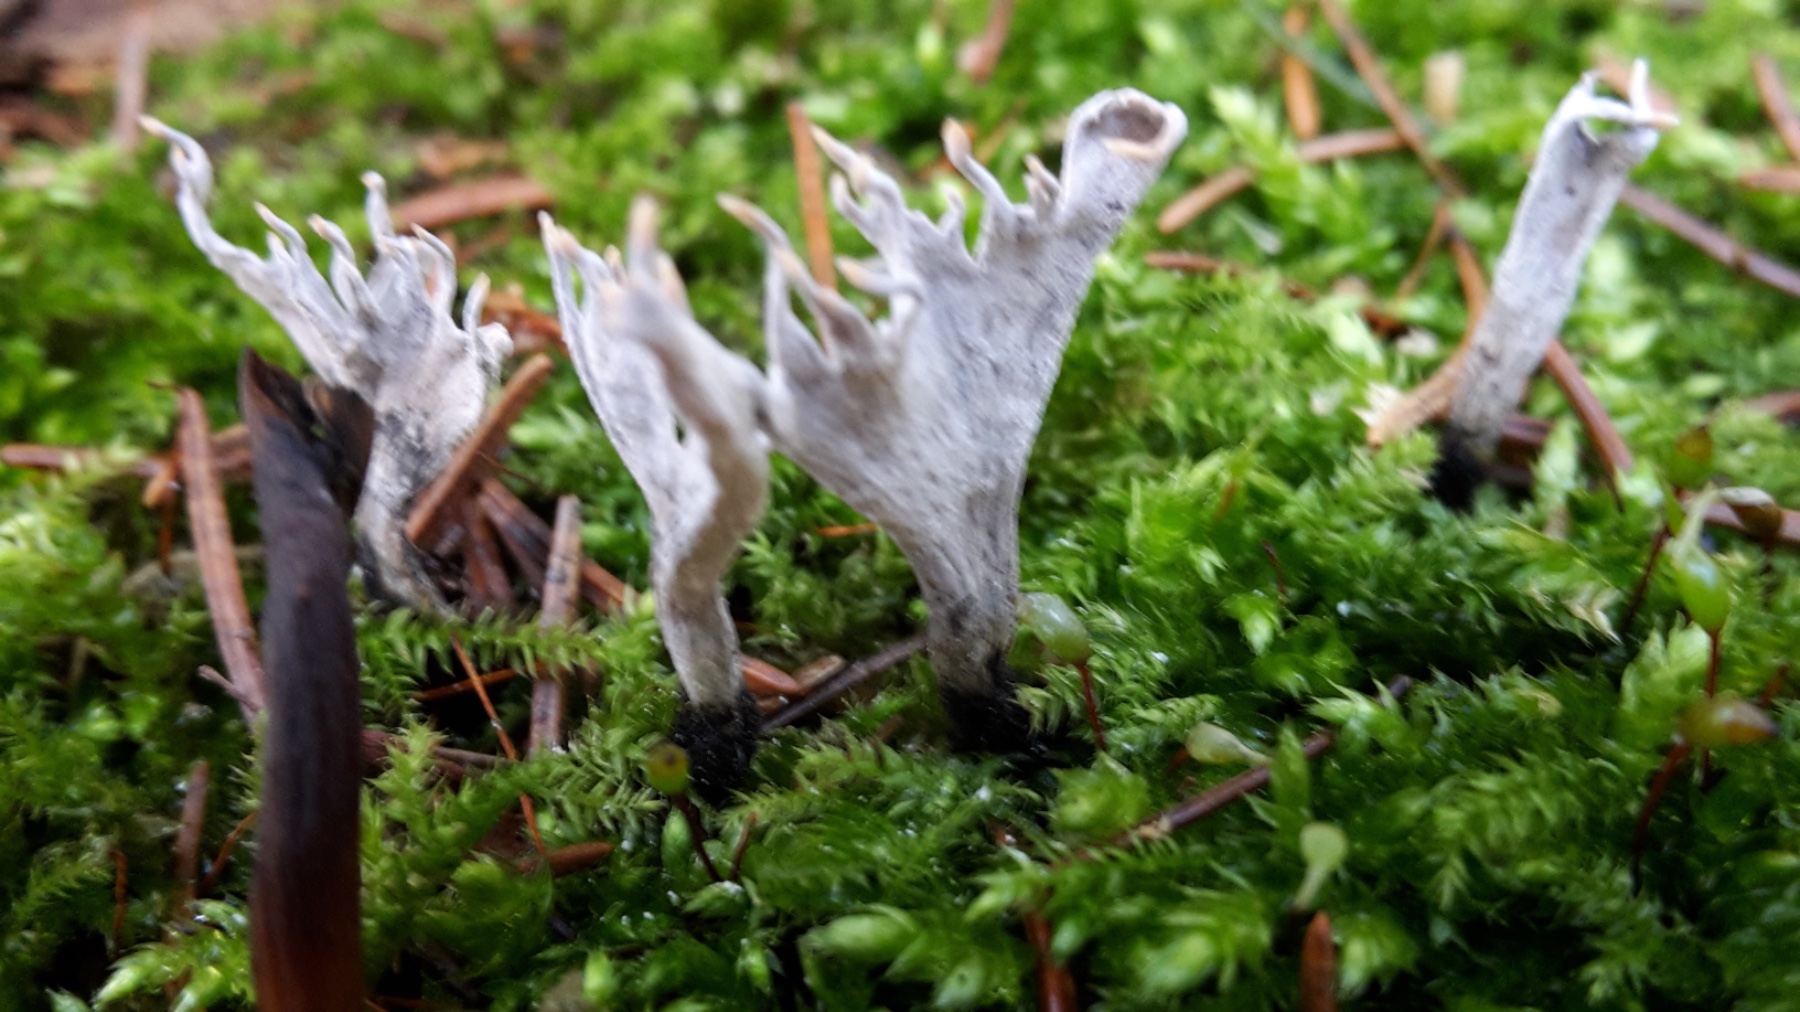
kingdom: Fungi
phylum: Ascomycota
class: Sordariomycetes
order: Xylariales
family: Xylariaceae
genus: Xylaria
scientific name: Xylaria hypoxylon
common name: grenet stødsvamp
